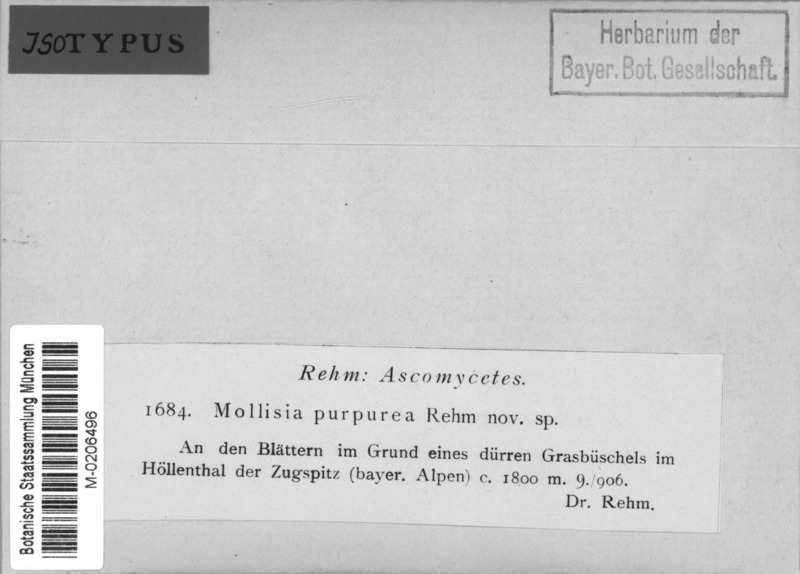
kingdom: Fungi
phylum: Ascomycota
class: Leotiomycetes
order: Helotiales
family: Mollisiaceae
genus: Mollisia
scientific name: Mollisia purpurea
